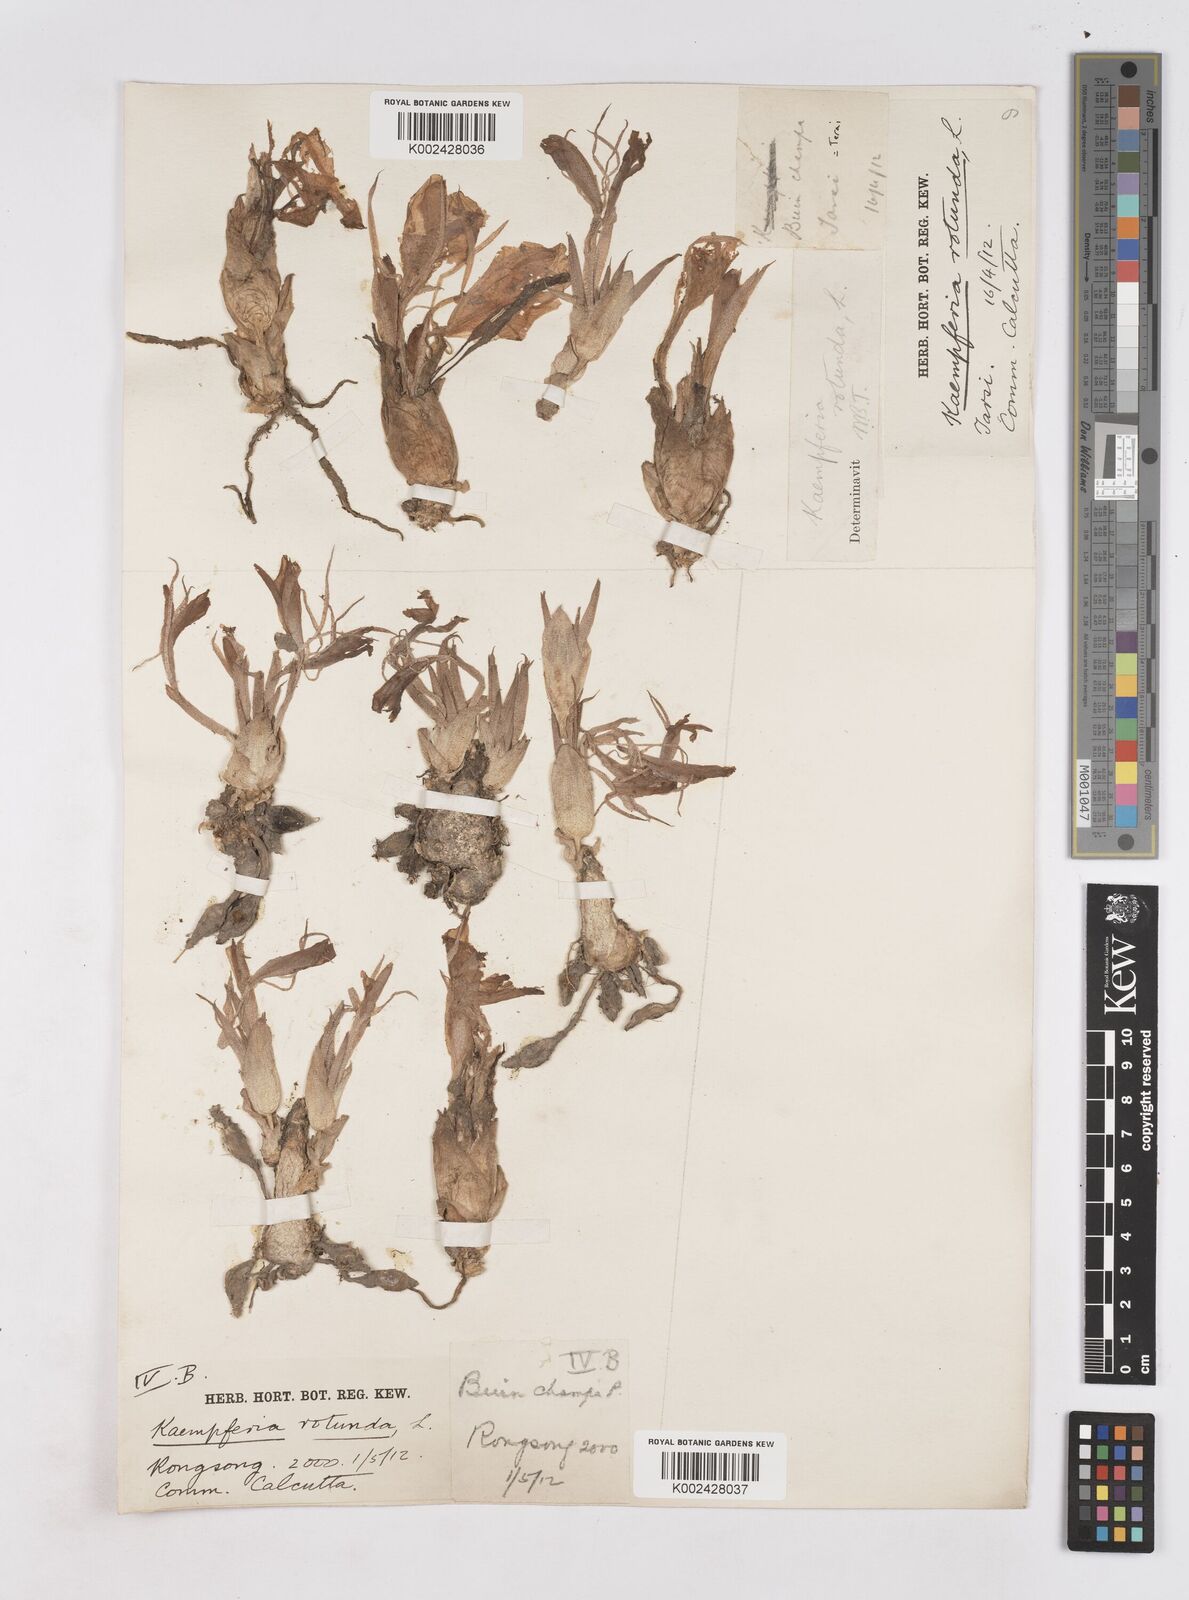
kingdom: Plantae
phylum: Tracheophyta
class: Liliopsida
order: Zingiberales
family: Zingiberaceae
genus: Kaempferia
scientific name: Kaempferia rotunda
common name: Tropical-crocus
